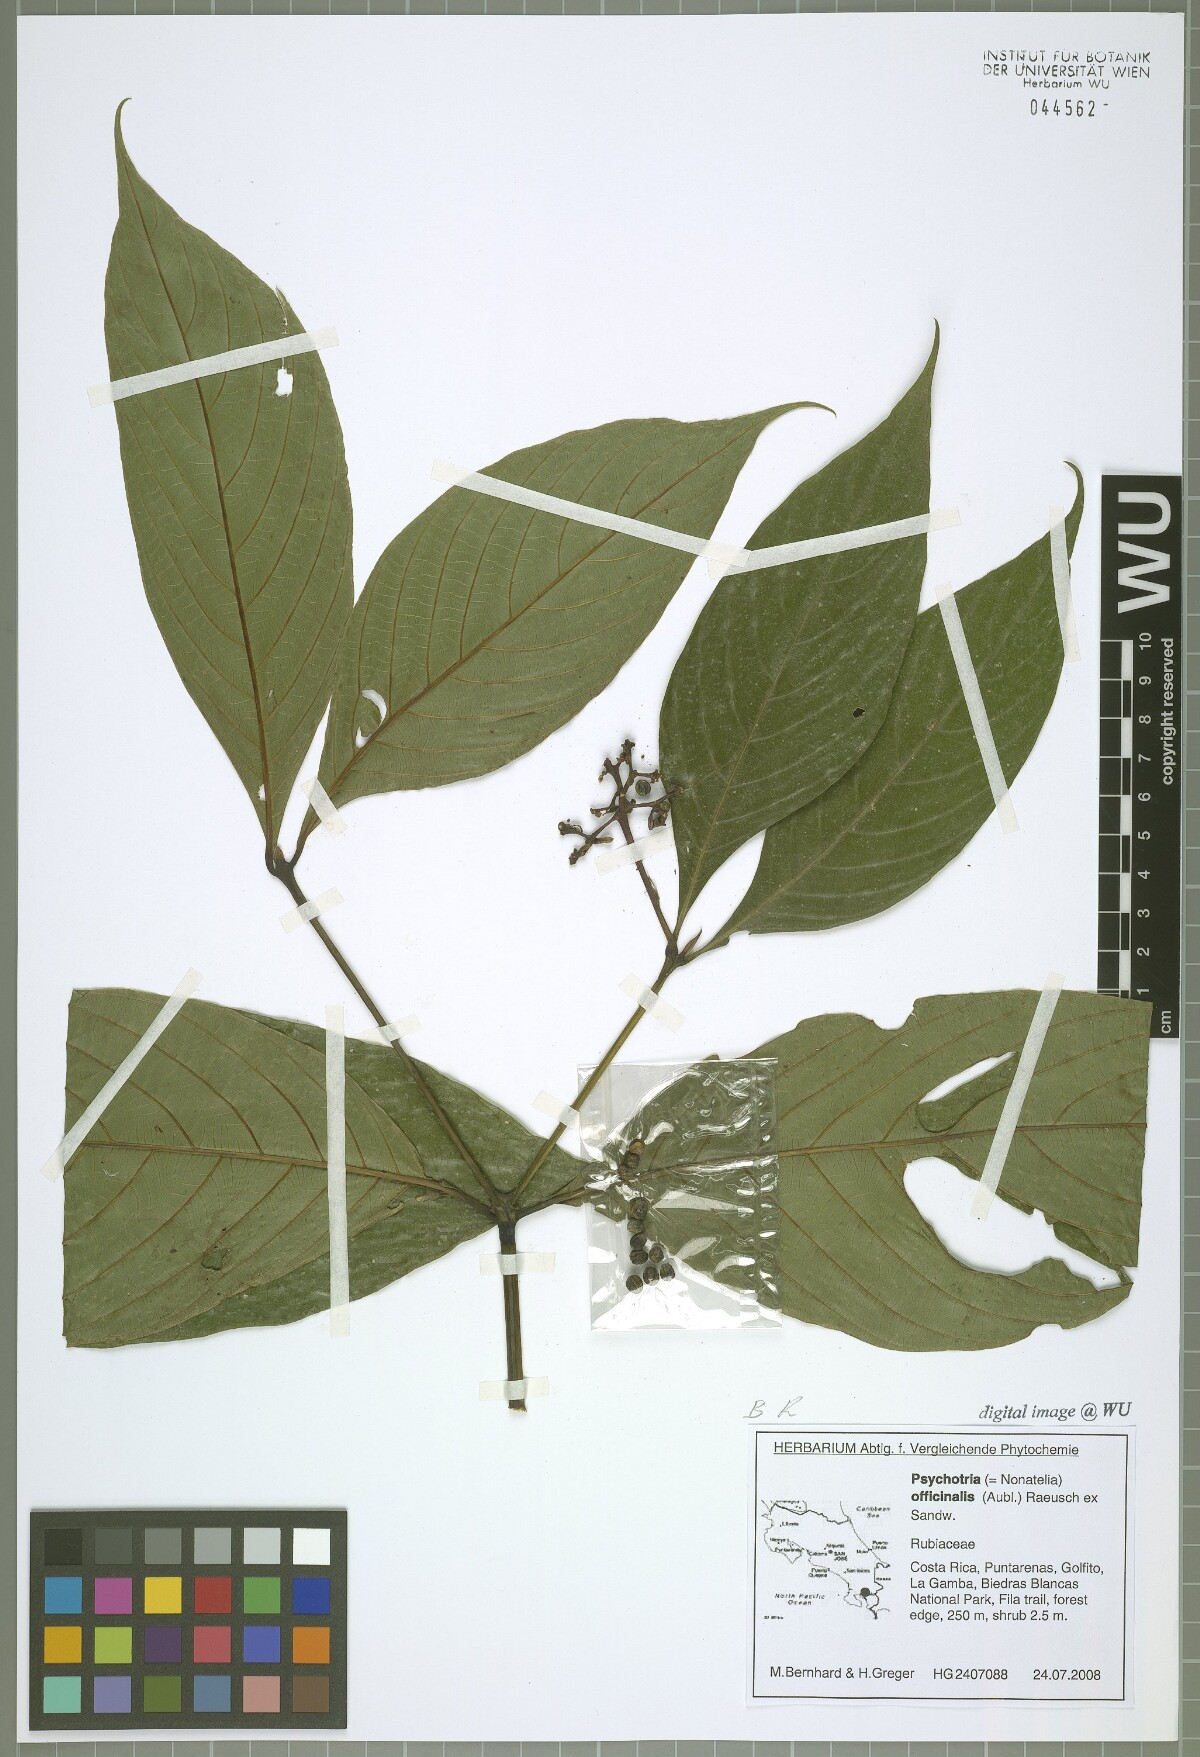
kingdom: Plantae
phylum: Tracheophyta
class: Magnoliopsida
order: Gentianales
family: Rubiaceae
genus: Palicourea
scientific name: Palicourea winkleri
